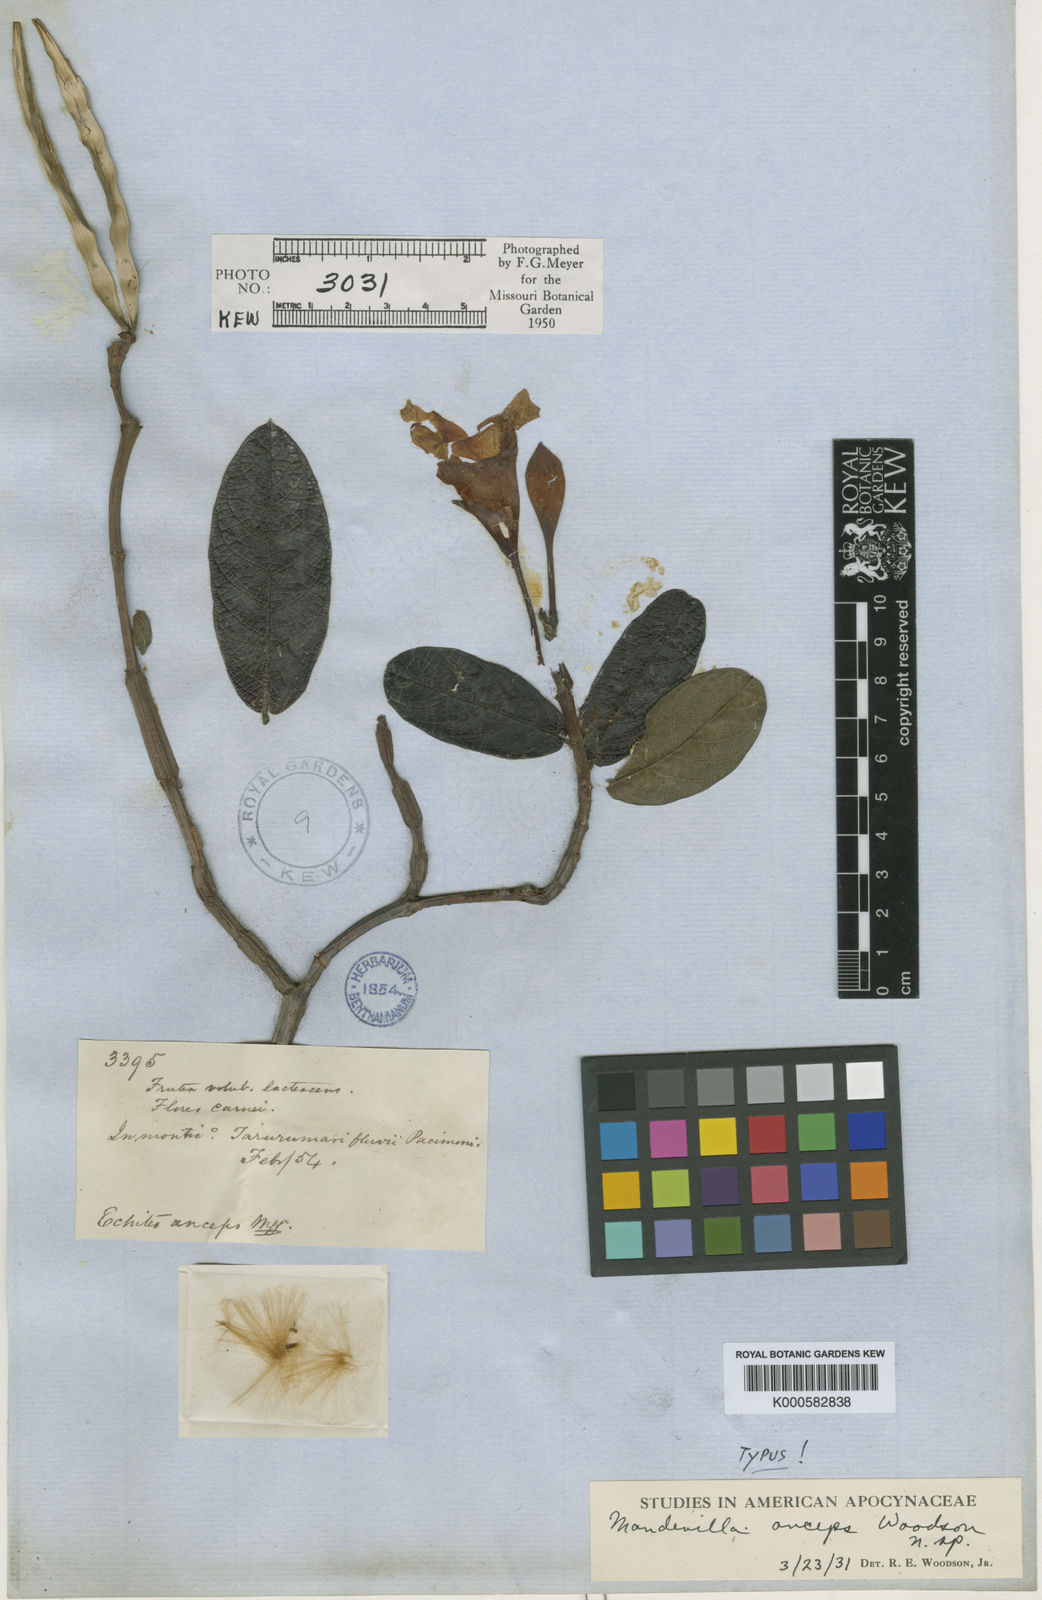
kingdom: Plantae
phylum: Tracheophyta
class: Magnoliopsida
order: Gentianales
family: Apocynaceae
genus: Mandevilla
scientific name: Mandevilla anceps
